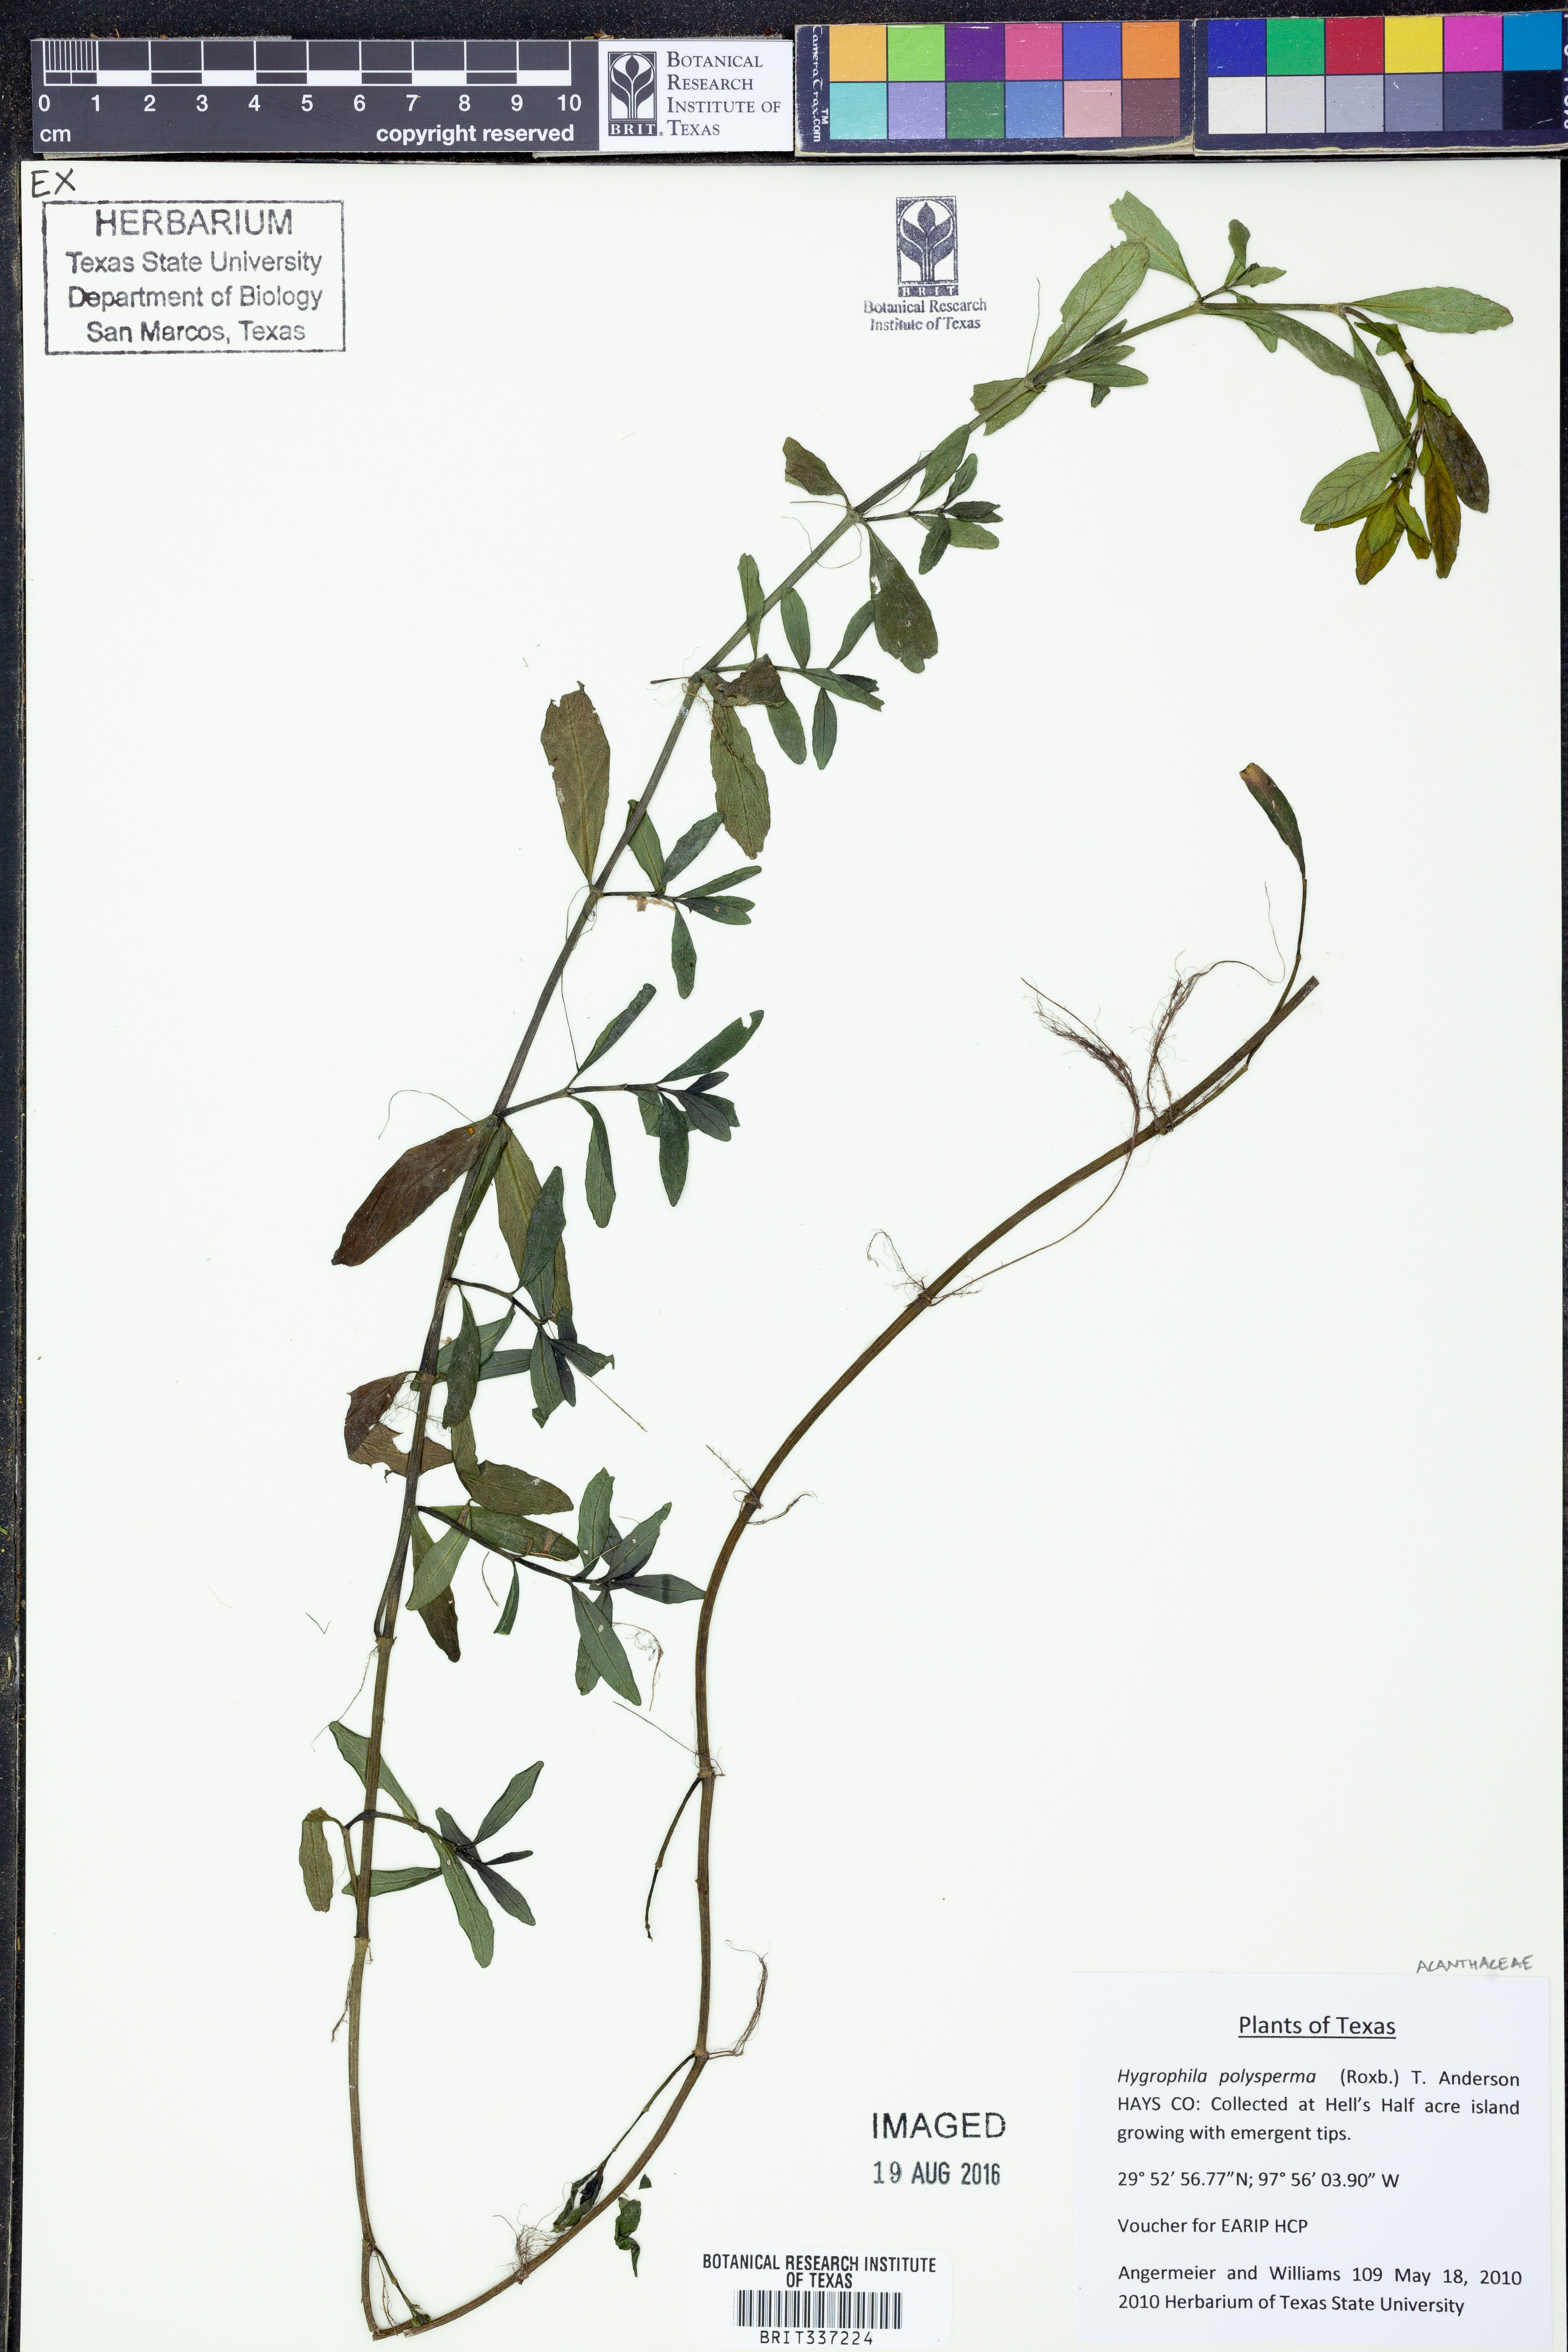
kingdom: Plantae
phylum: Tracheophyta
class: Magnoliopsida
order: Lamiales
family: Acanthaceae
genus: Hygrophila
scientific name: Hygrophila polysperma
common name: Indian swampweed
